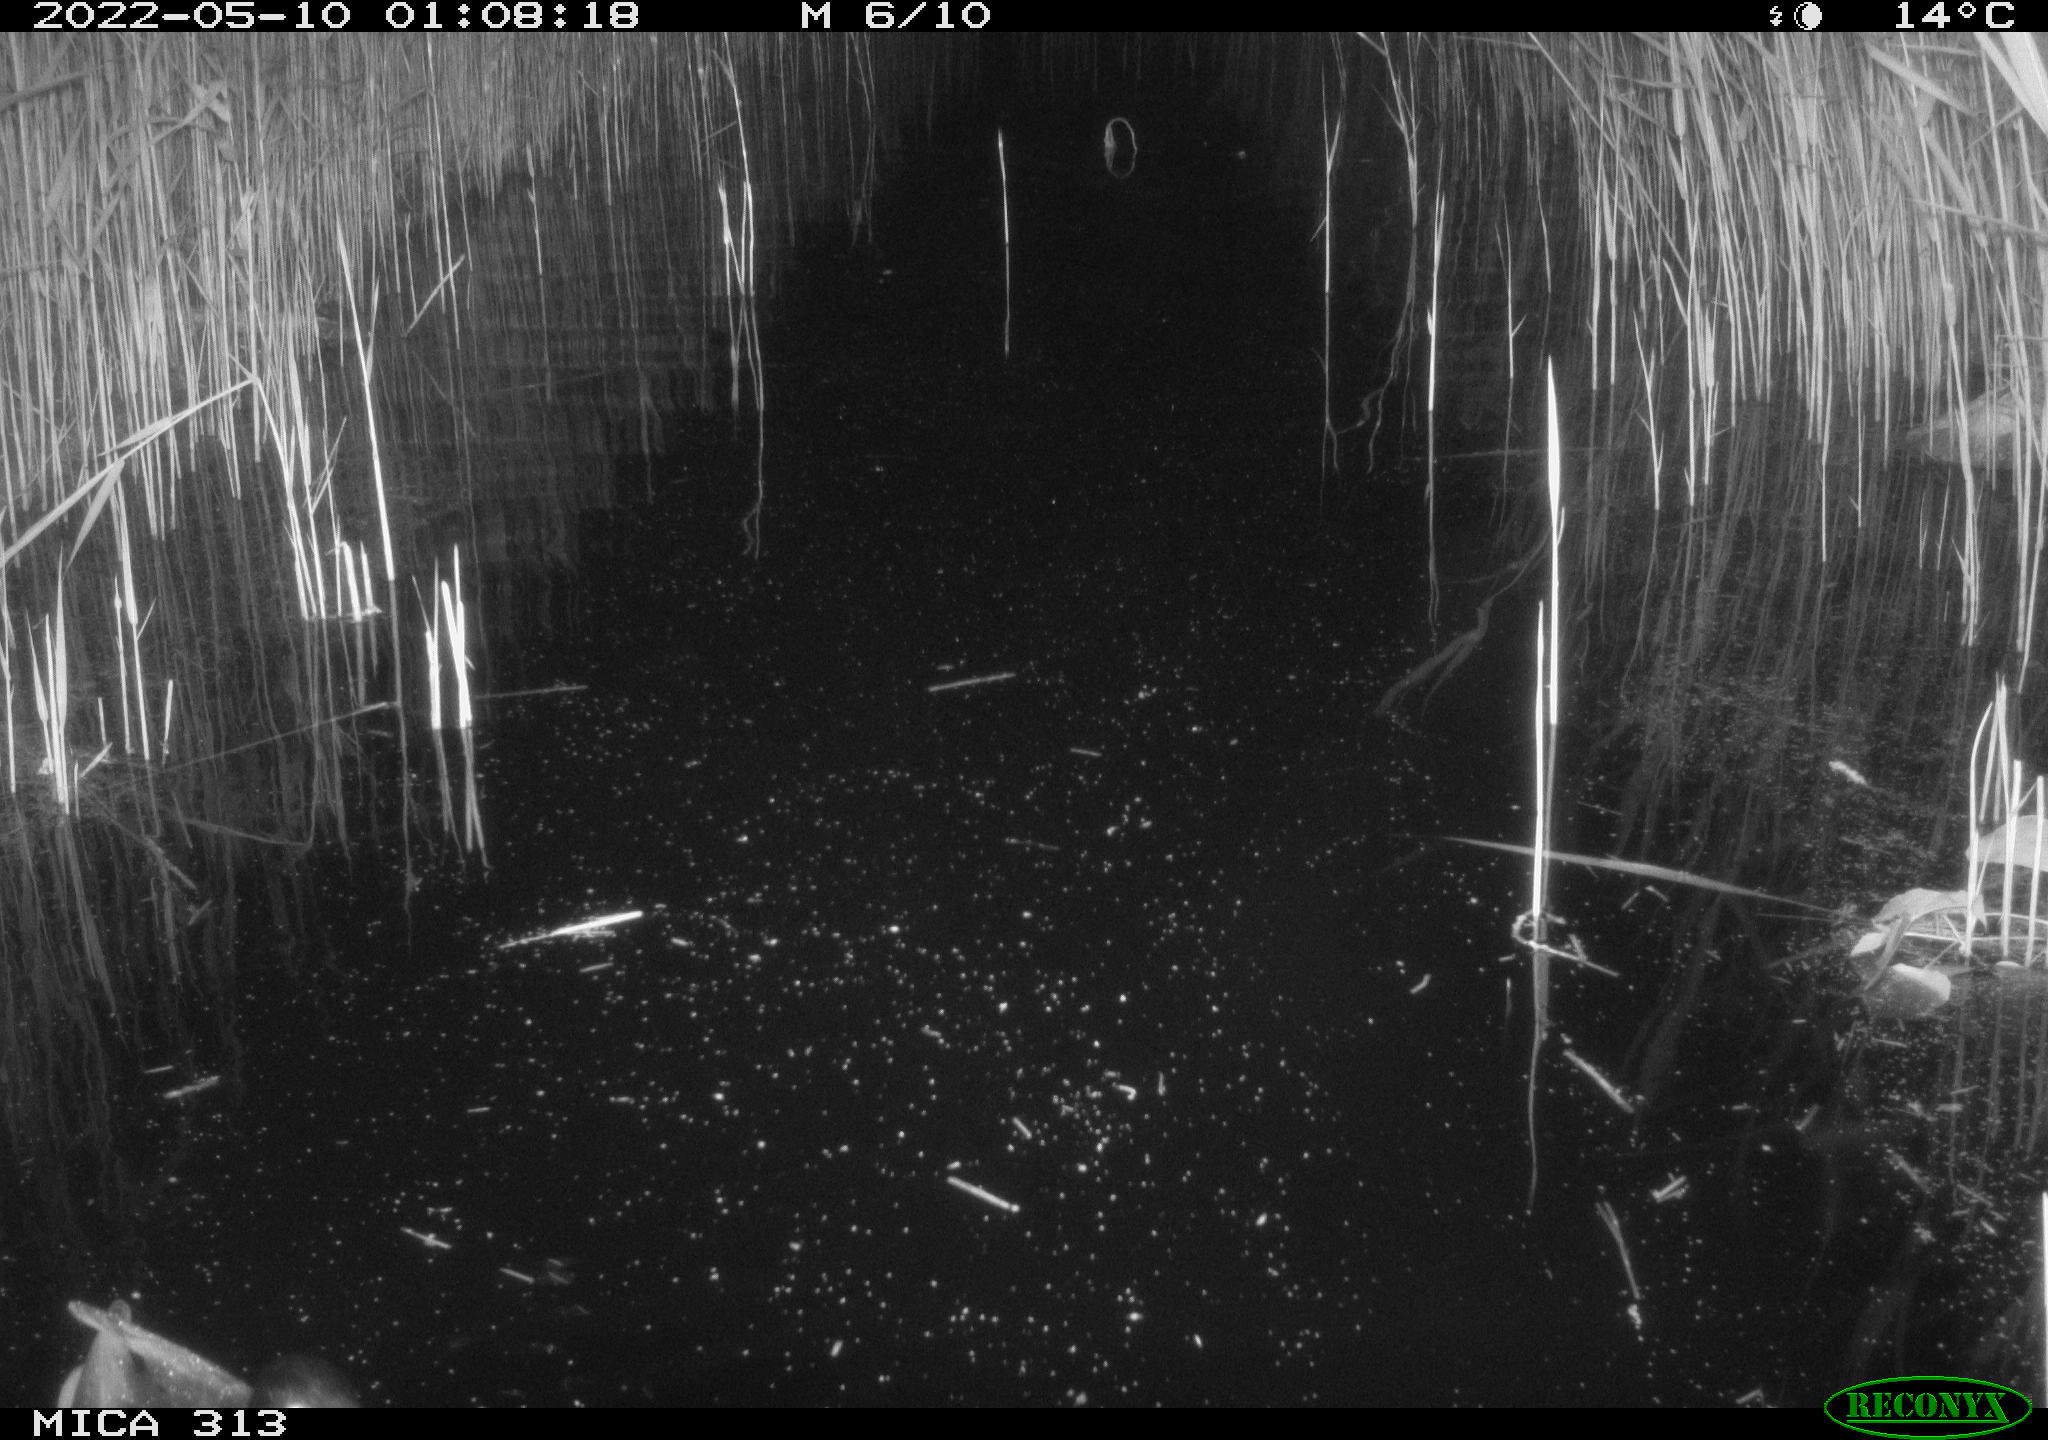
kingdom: Animalia
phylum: Chordata
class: Aves
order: Anseriformes
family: Anatidae
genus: Anas
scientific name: Anas platyrhynchos
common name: Mallard
